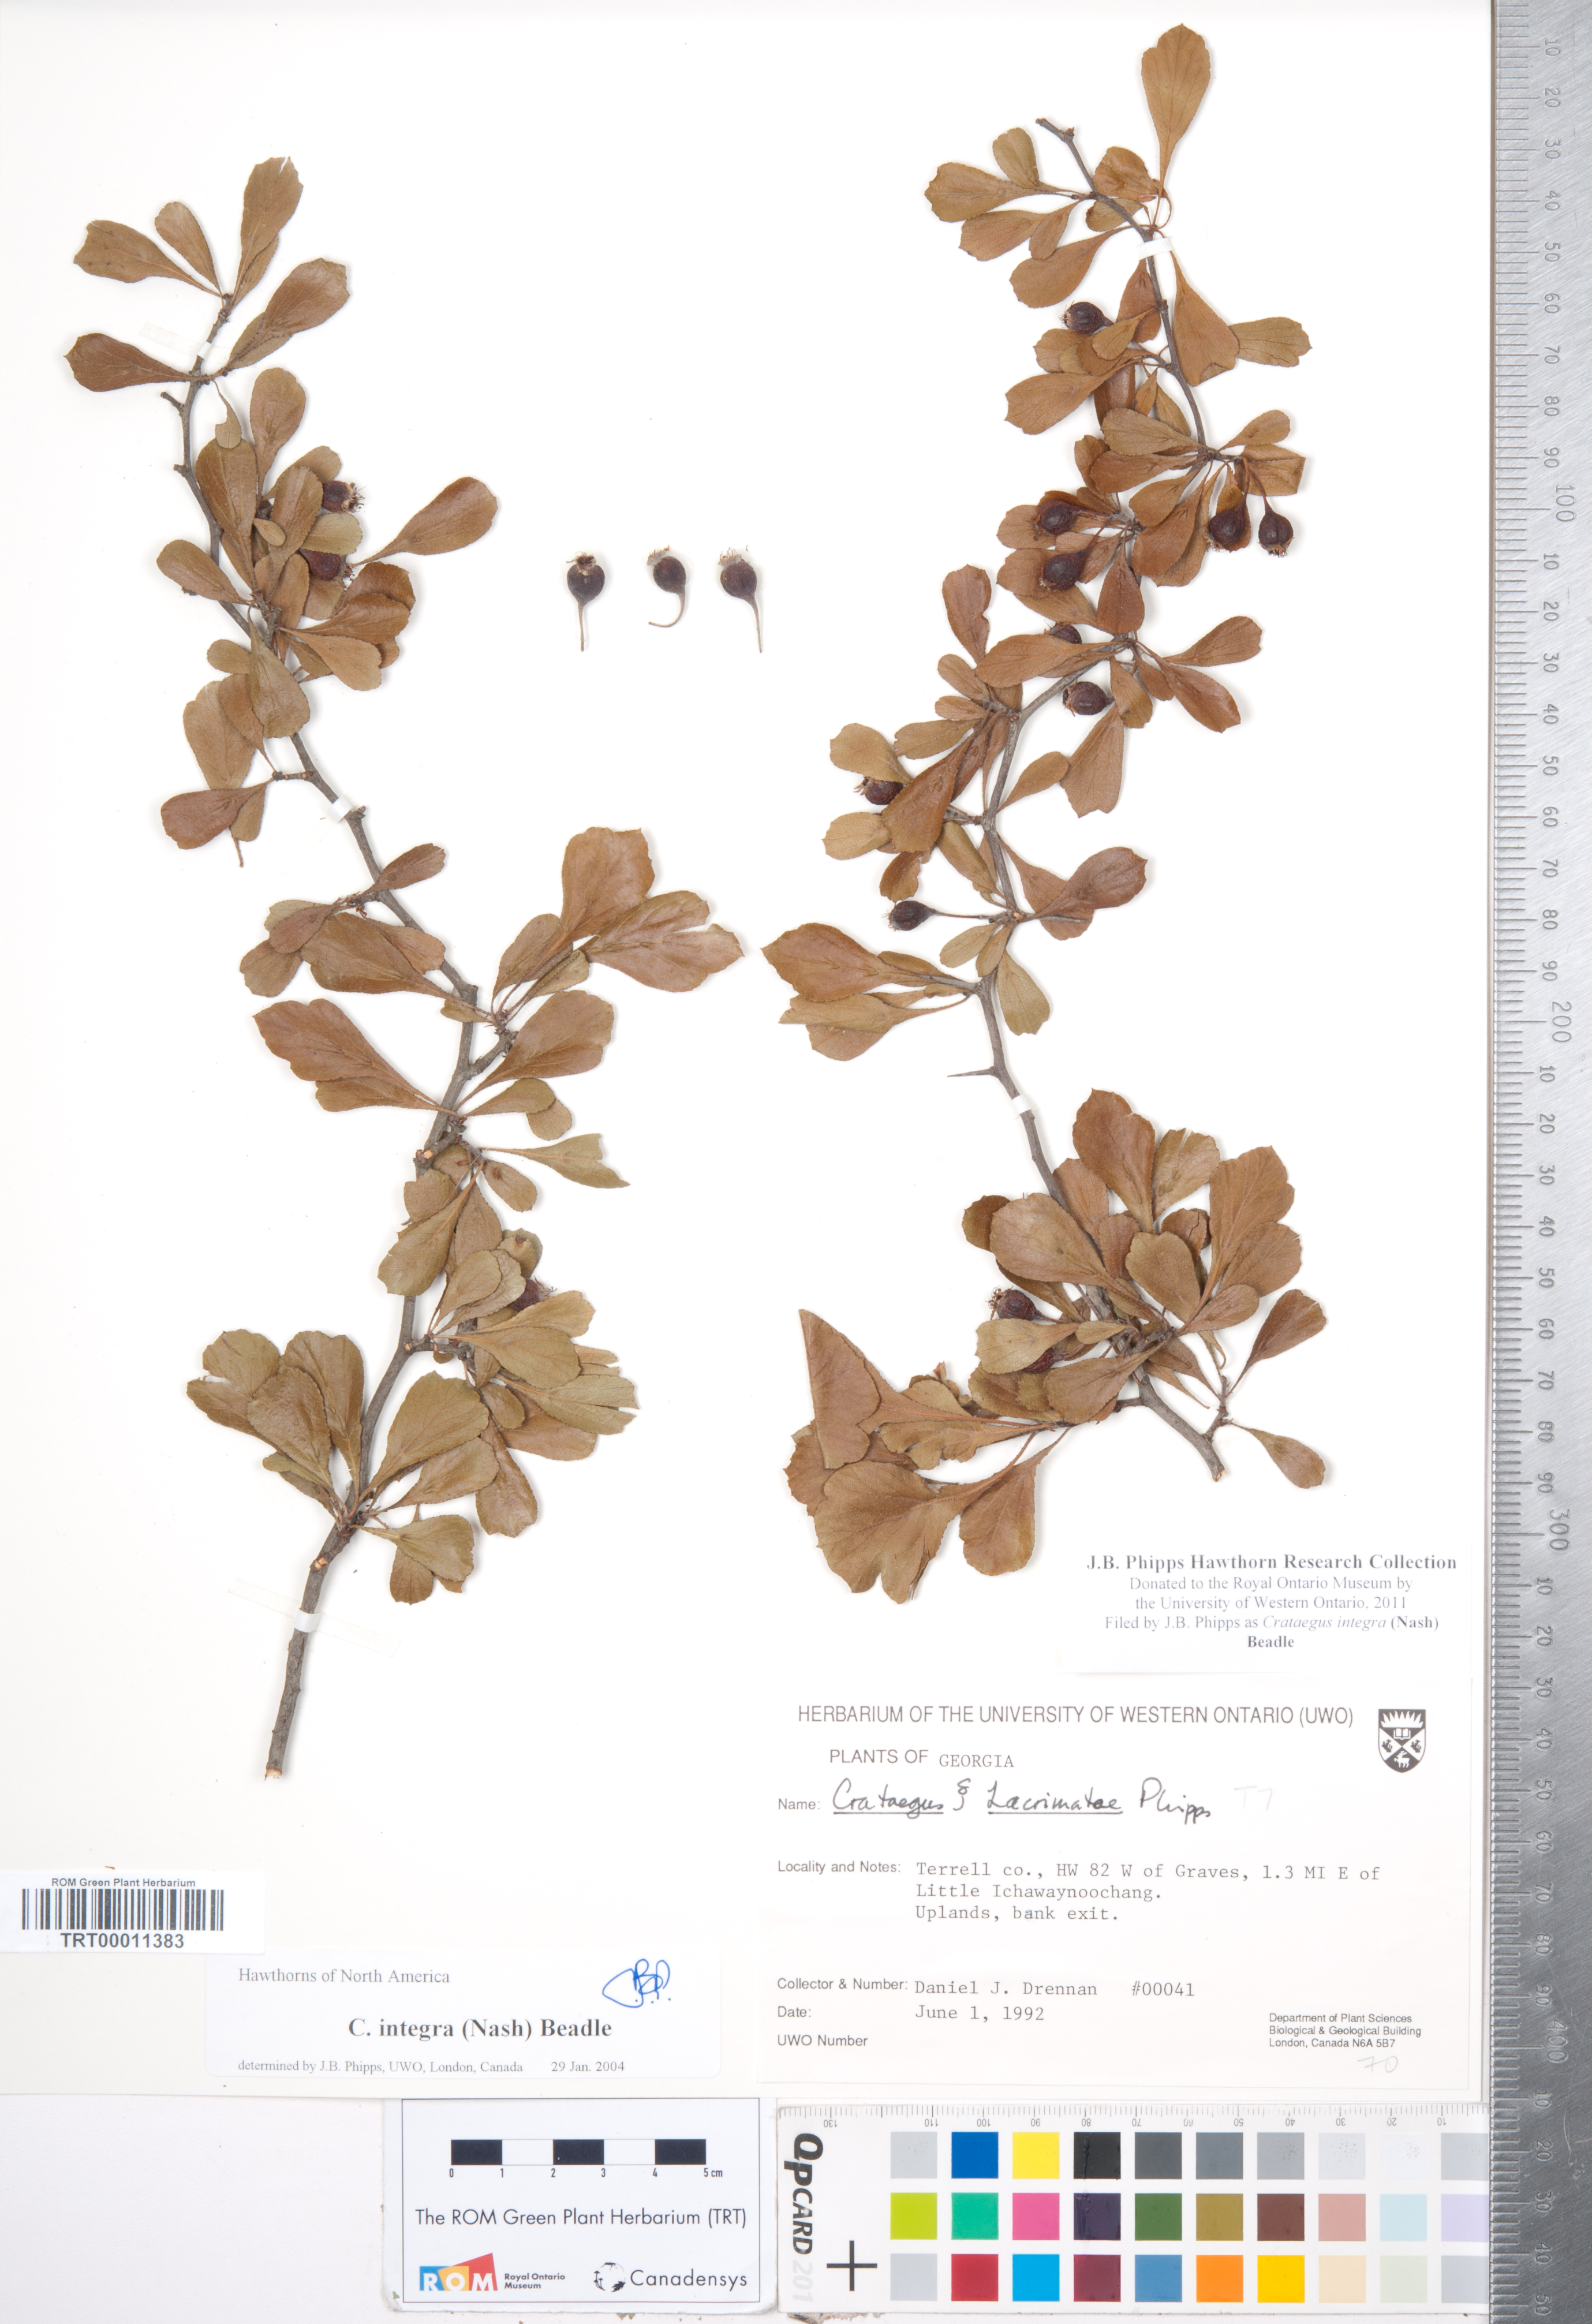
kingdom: Plantae
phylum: Tracheophyta
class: Magnoliopsida
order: Rosales
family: Rosaceae
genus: Crataegus
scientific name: Crataegus lassa
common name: Florida hawthorn
